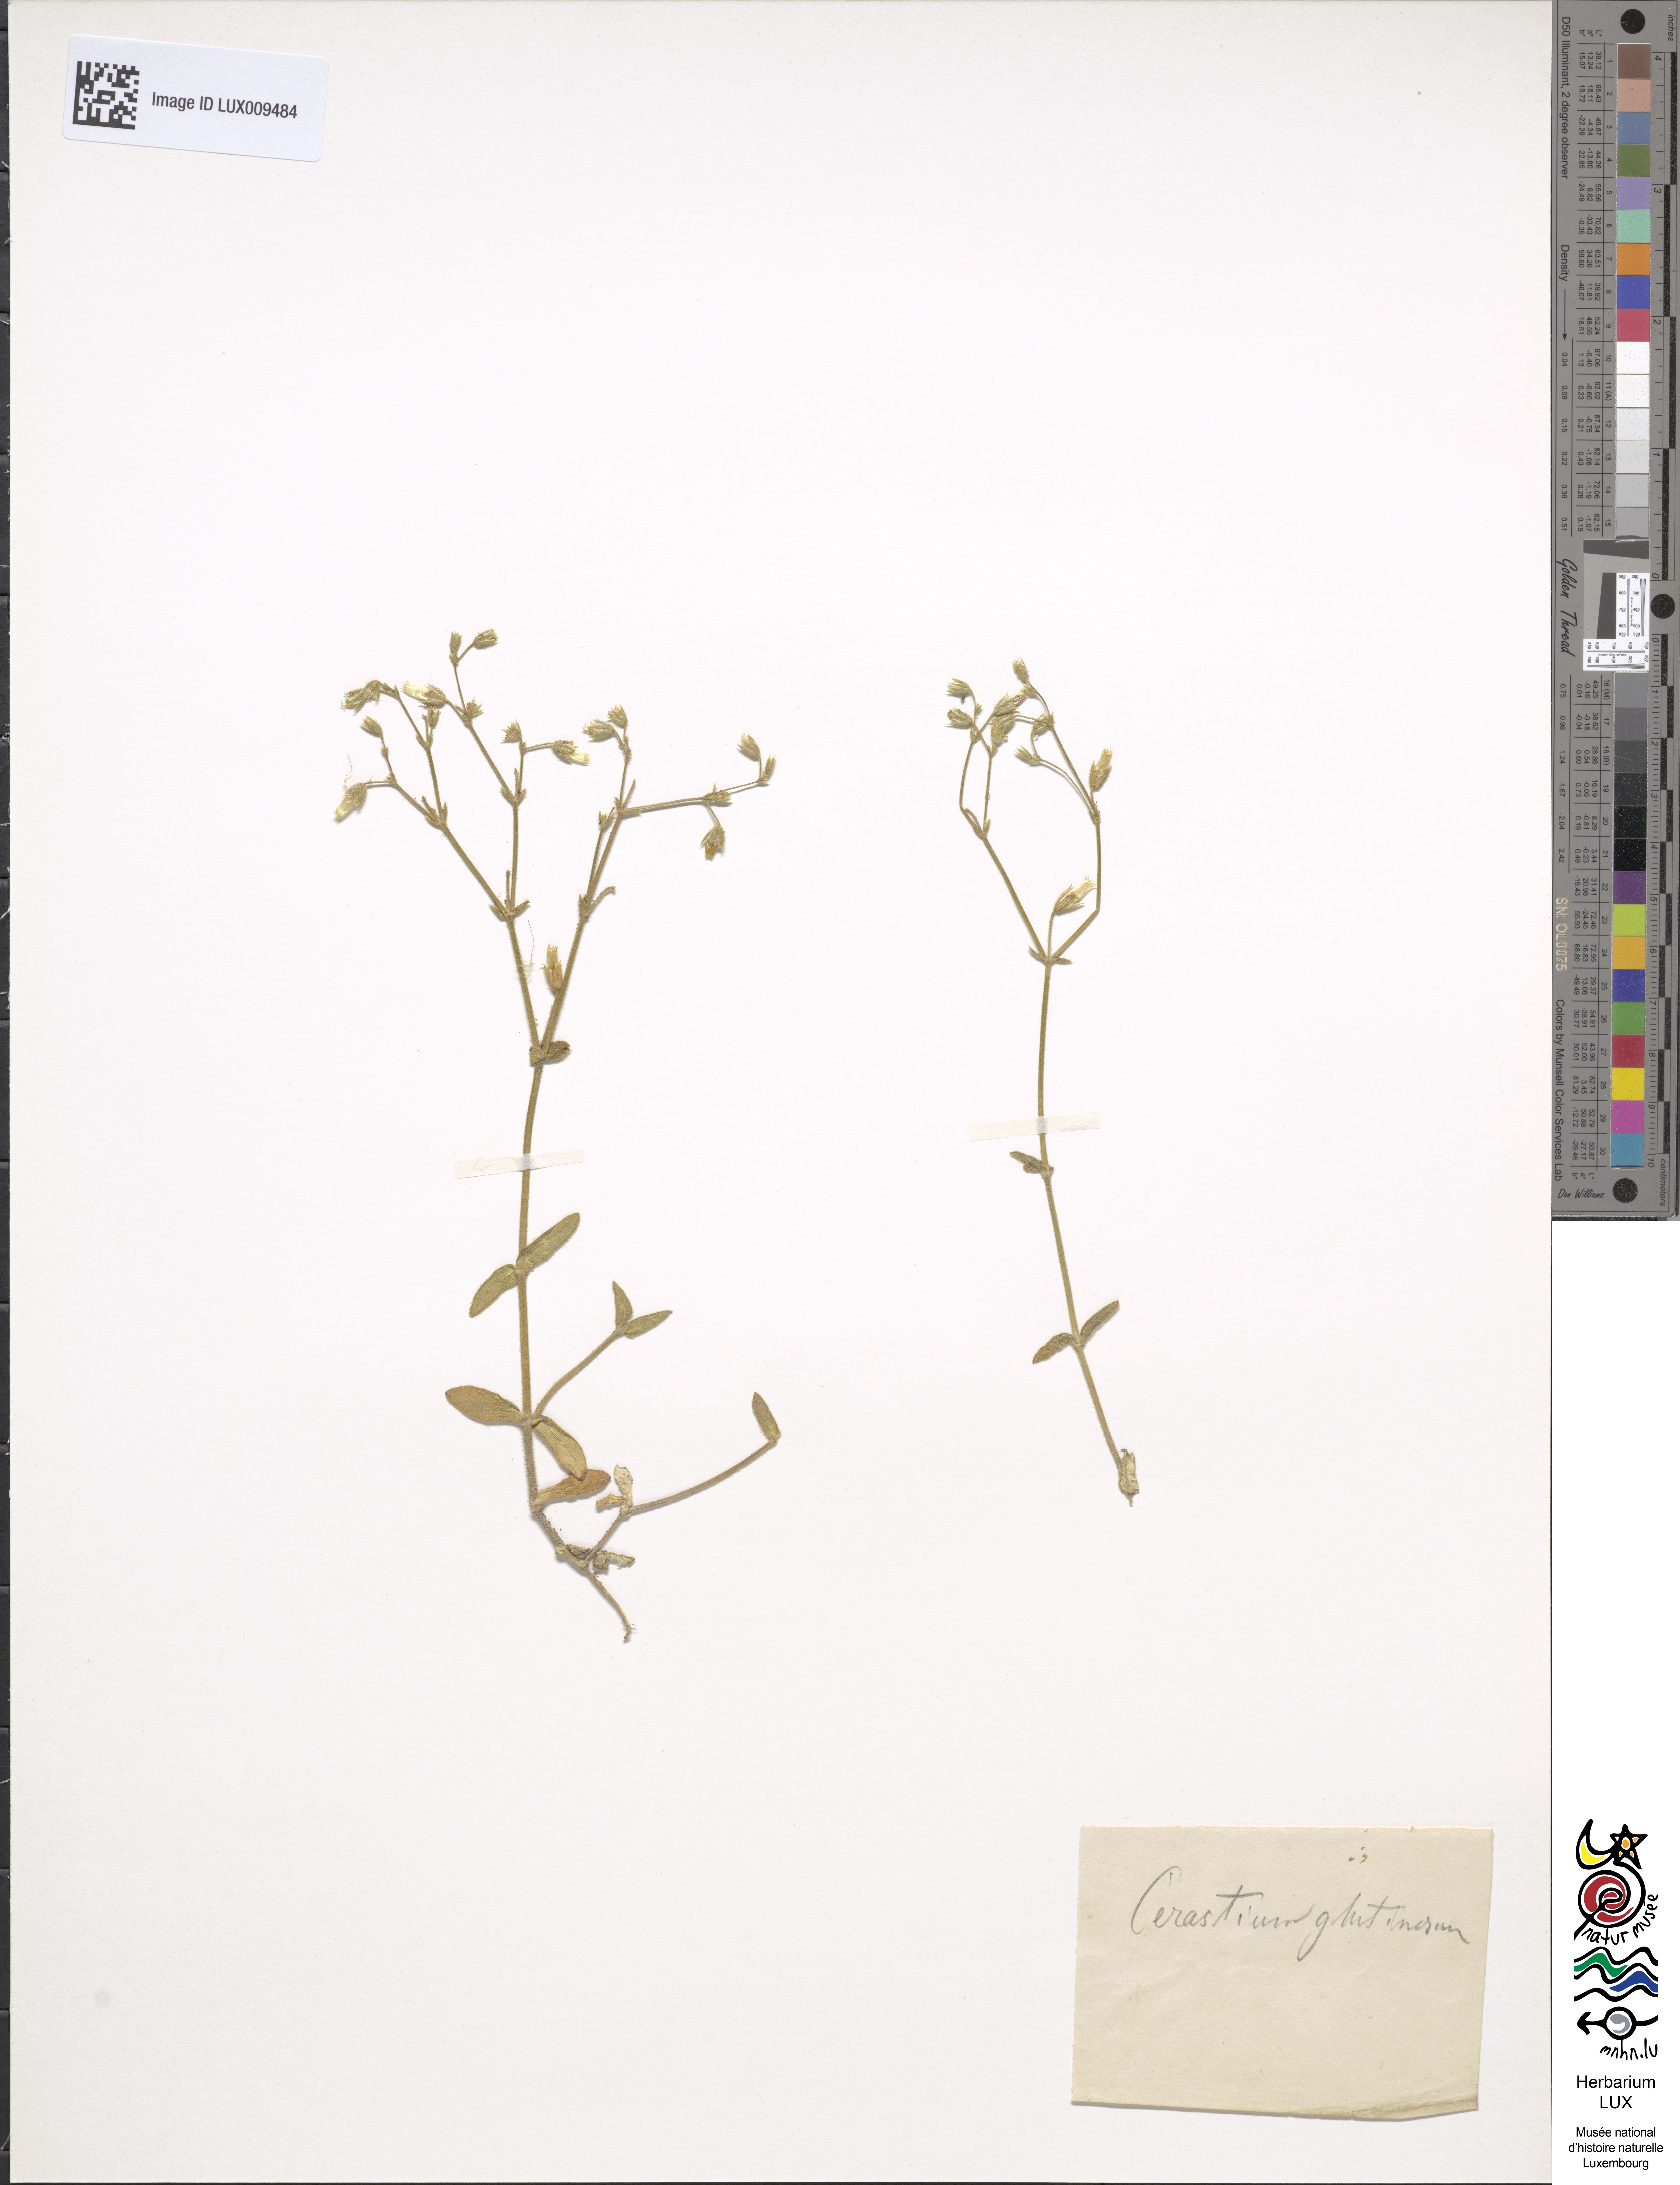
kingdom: Plantae
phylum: Tracheophyta
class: Magnoliopsida
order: Caryophyllales
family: Caryophyllaceae
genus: Cerastium
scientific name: Cerastium pumilum
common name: Dwarf mouse-ear
